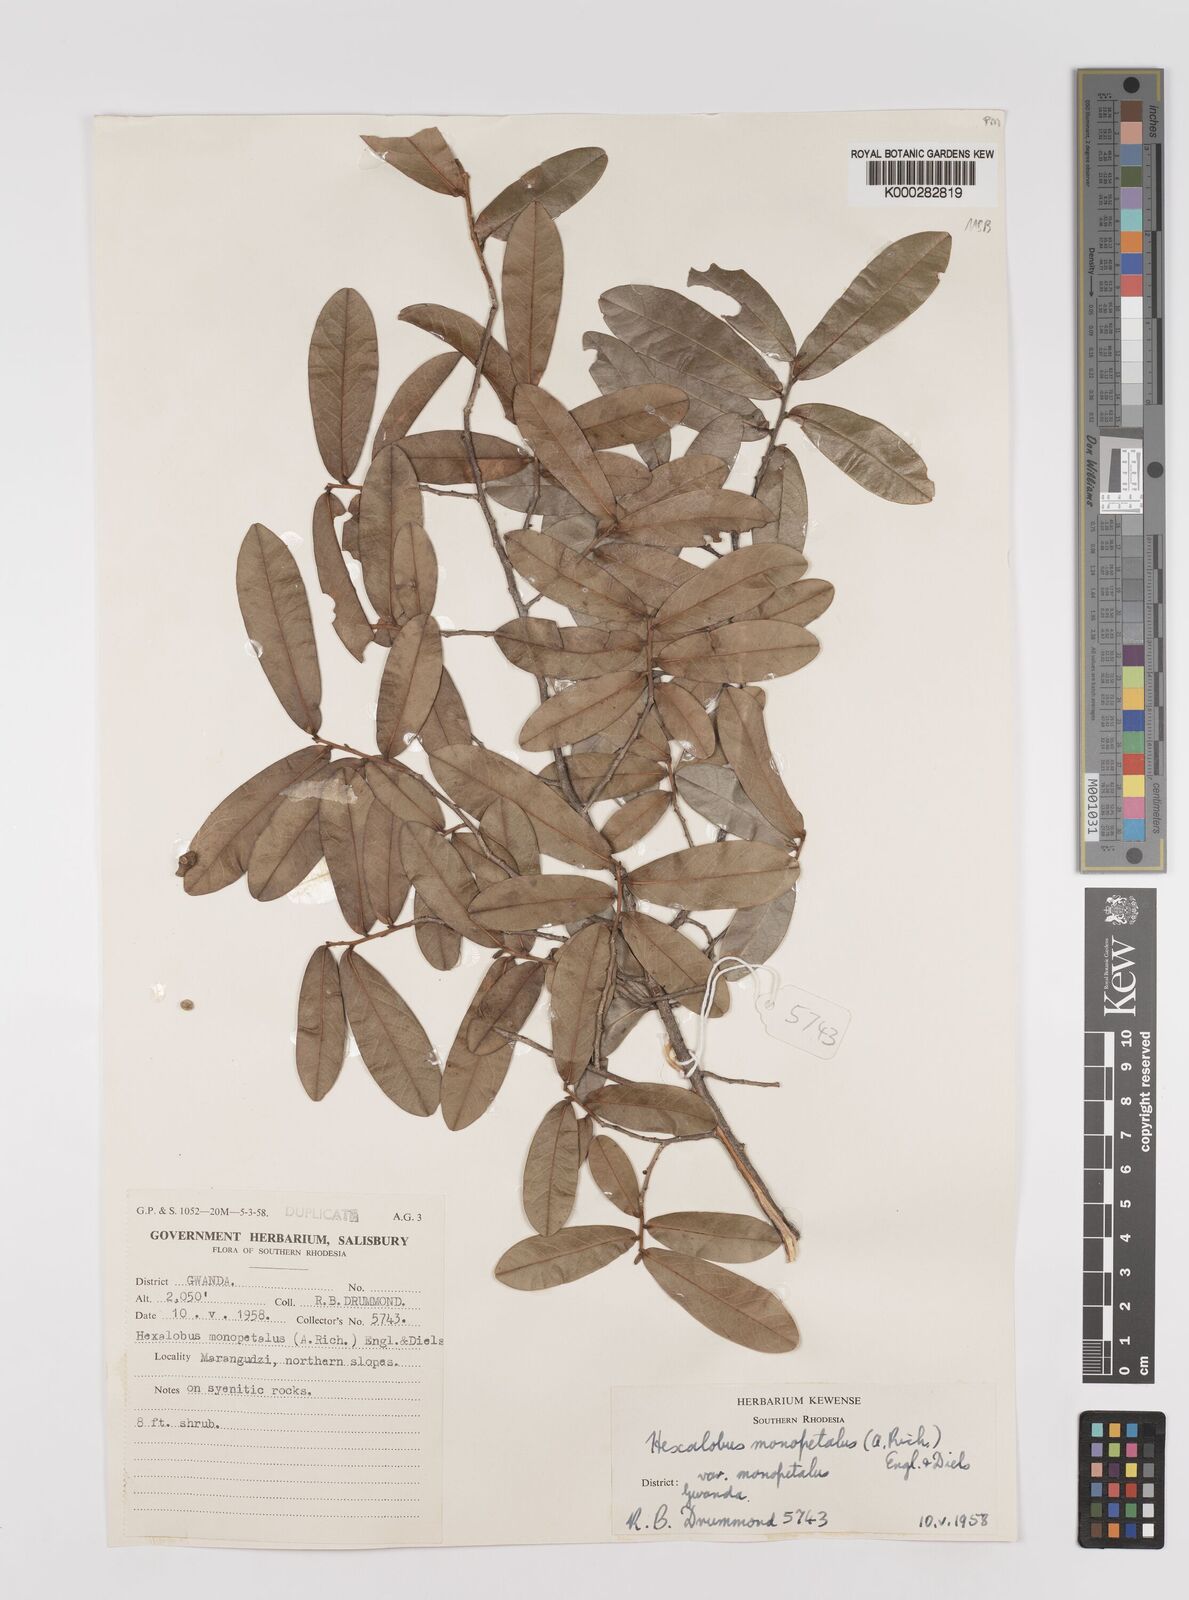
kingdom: Plantae
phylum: Tracheophyta
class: Magnoliopsida
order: Magnoliales
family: Annonaceae
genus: Hexalobus
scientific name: Hexalobus monopetalus
